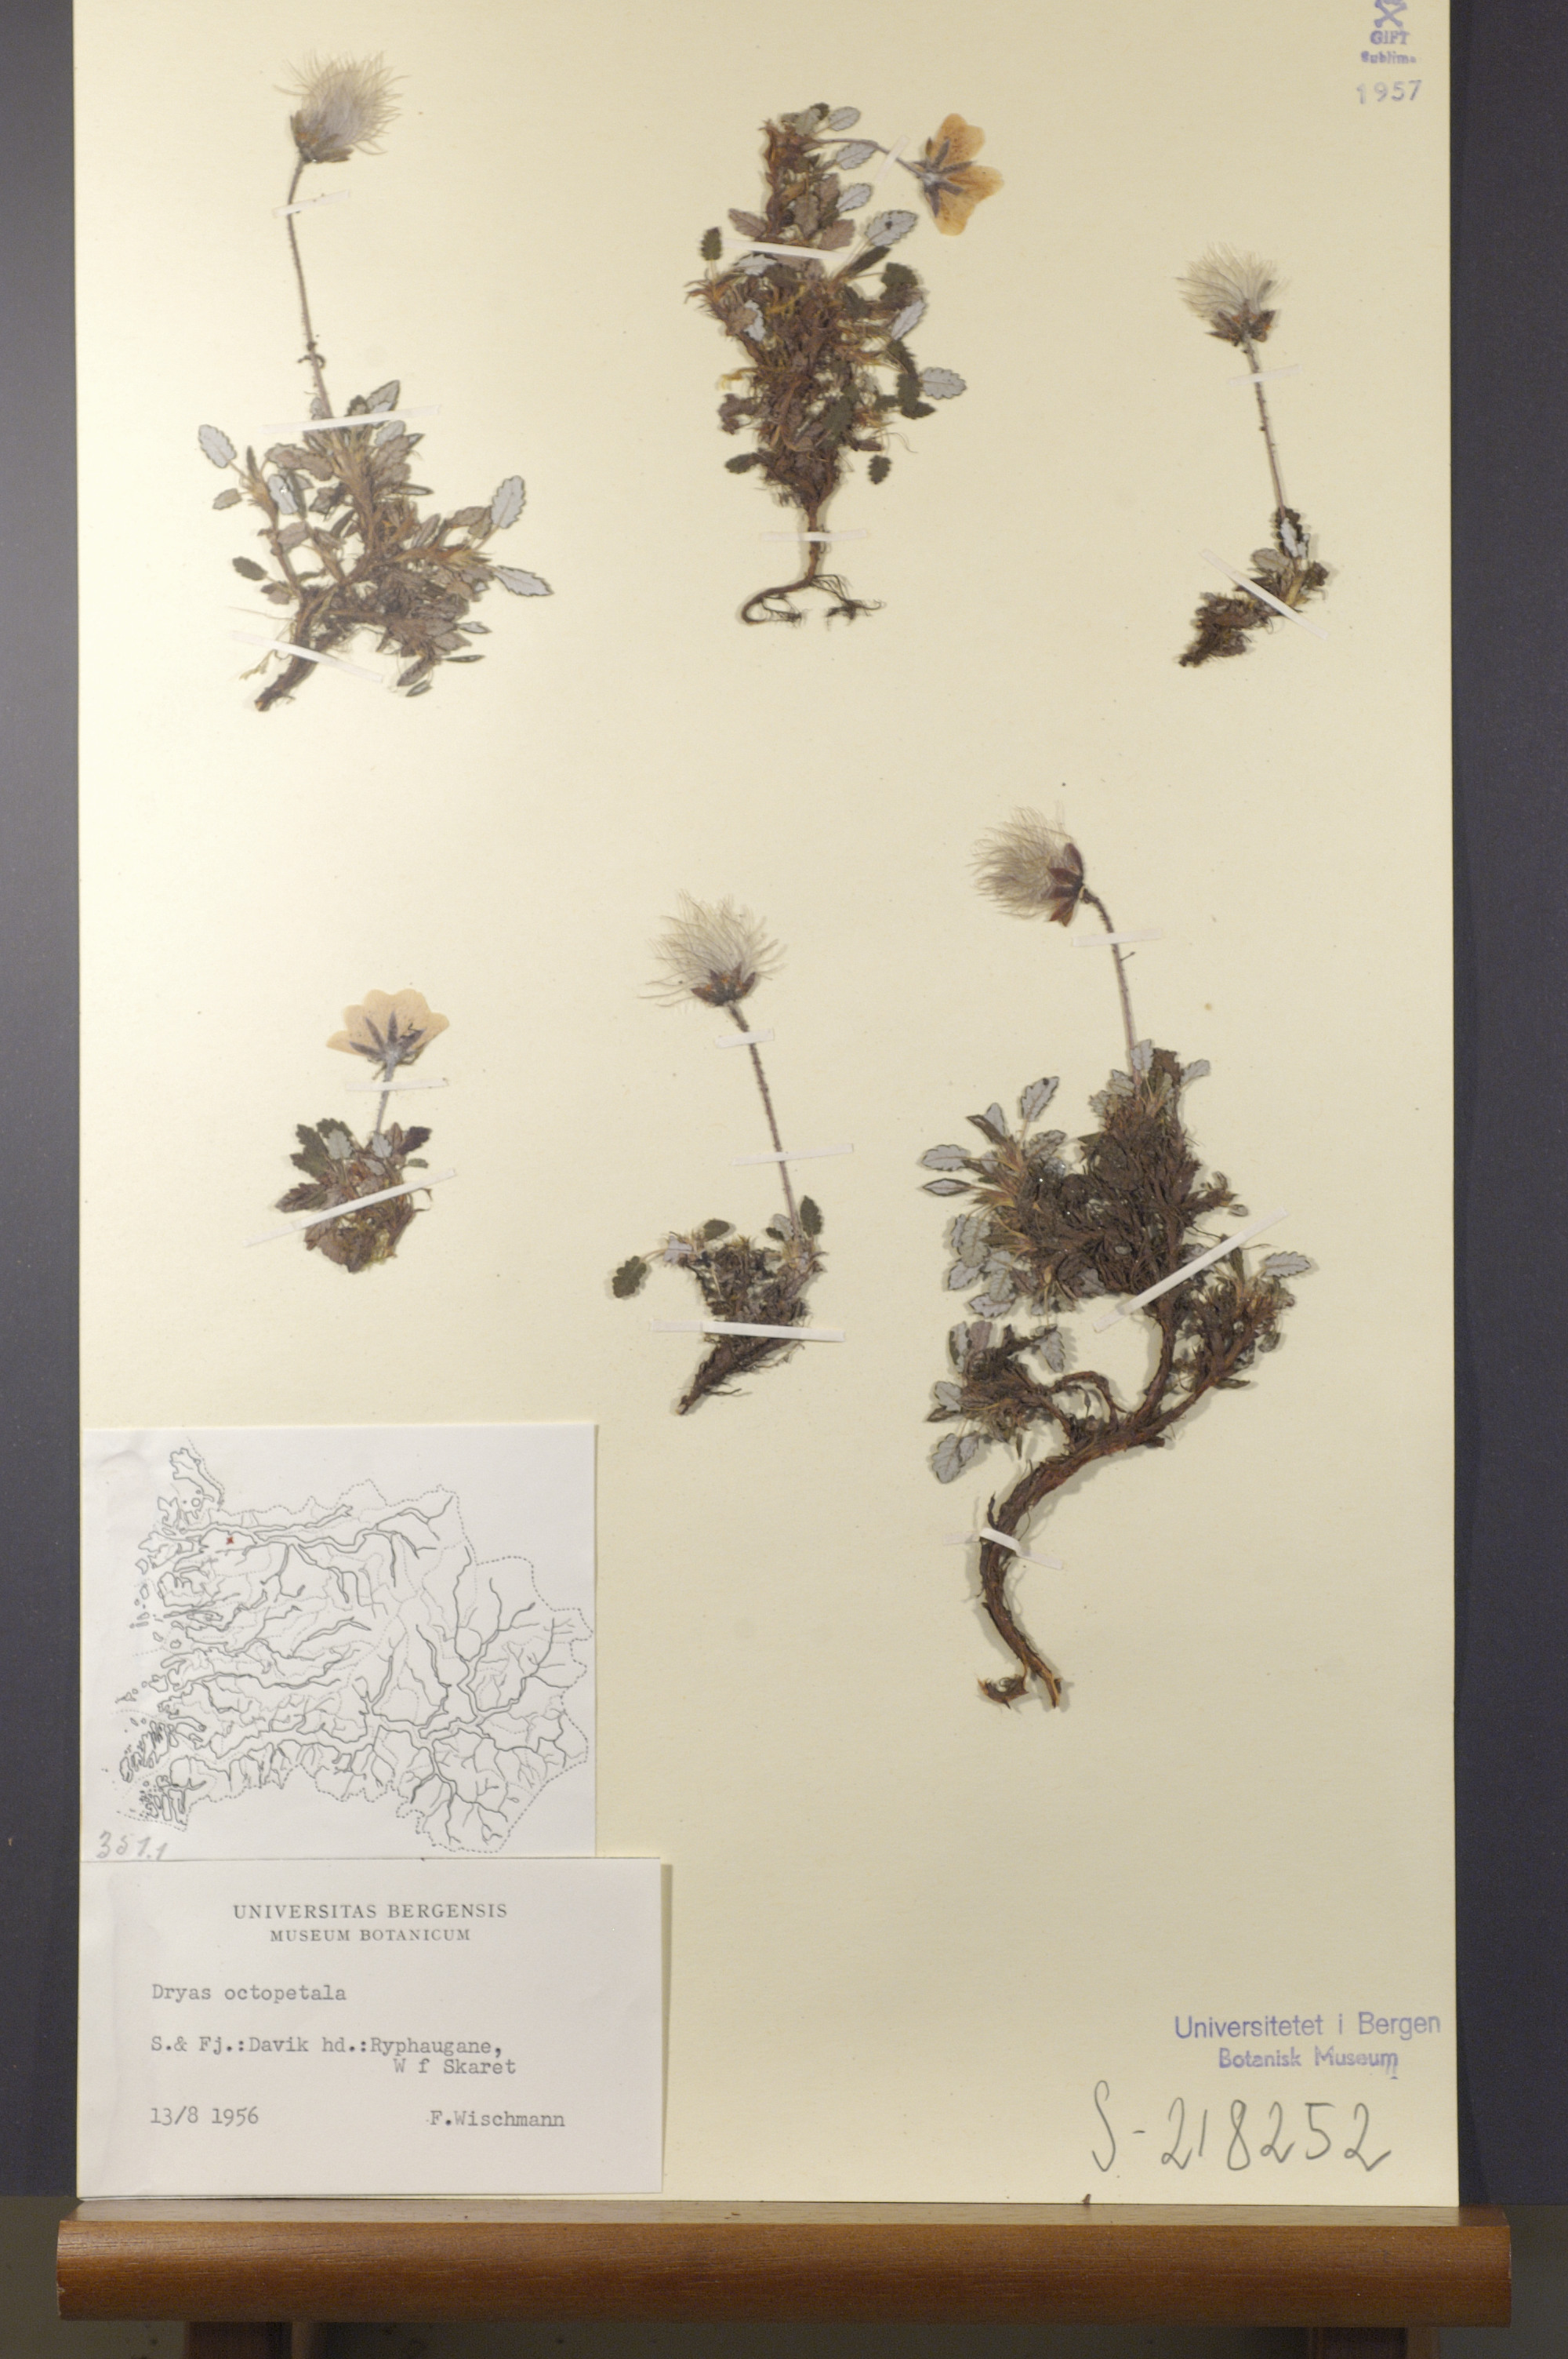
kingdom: Plantae
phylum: Tracheophyta
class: Magnoliopsida
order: Rosales
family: Rosaceae
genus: Dryas
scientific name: Dryas octopetala
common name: Eight-petal mountain-avens
